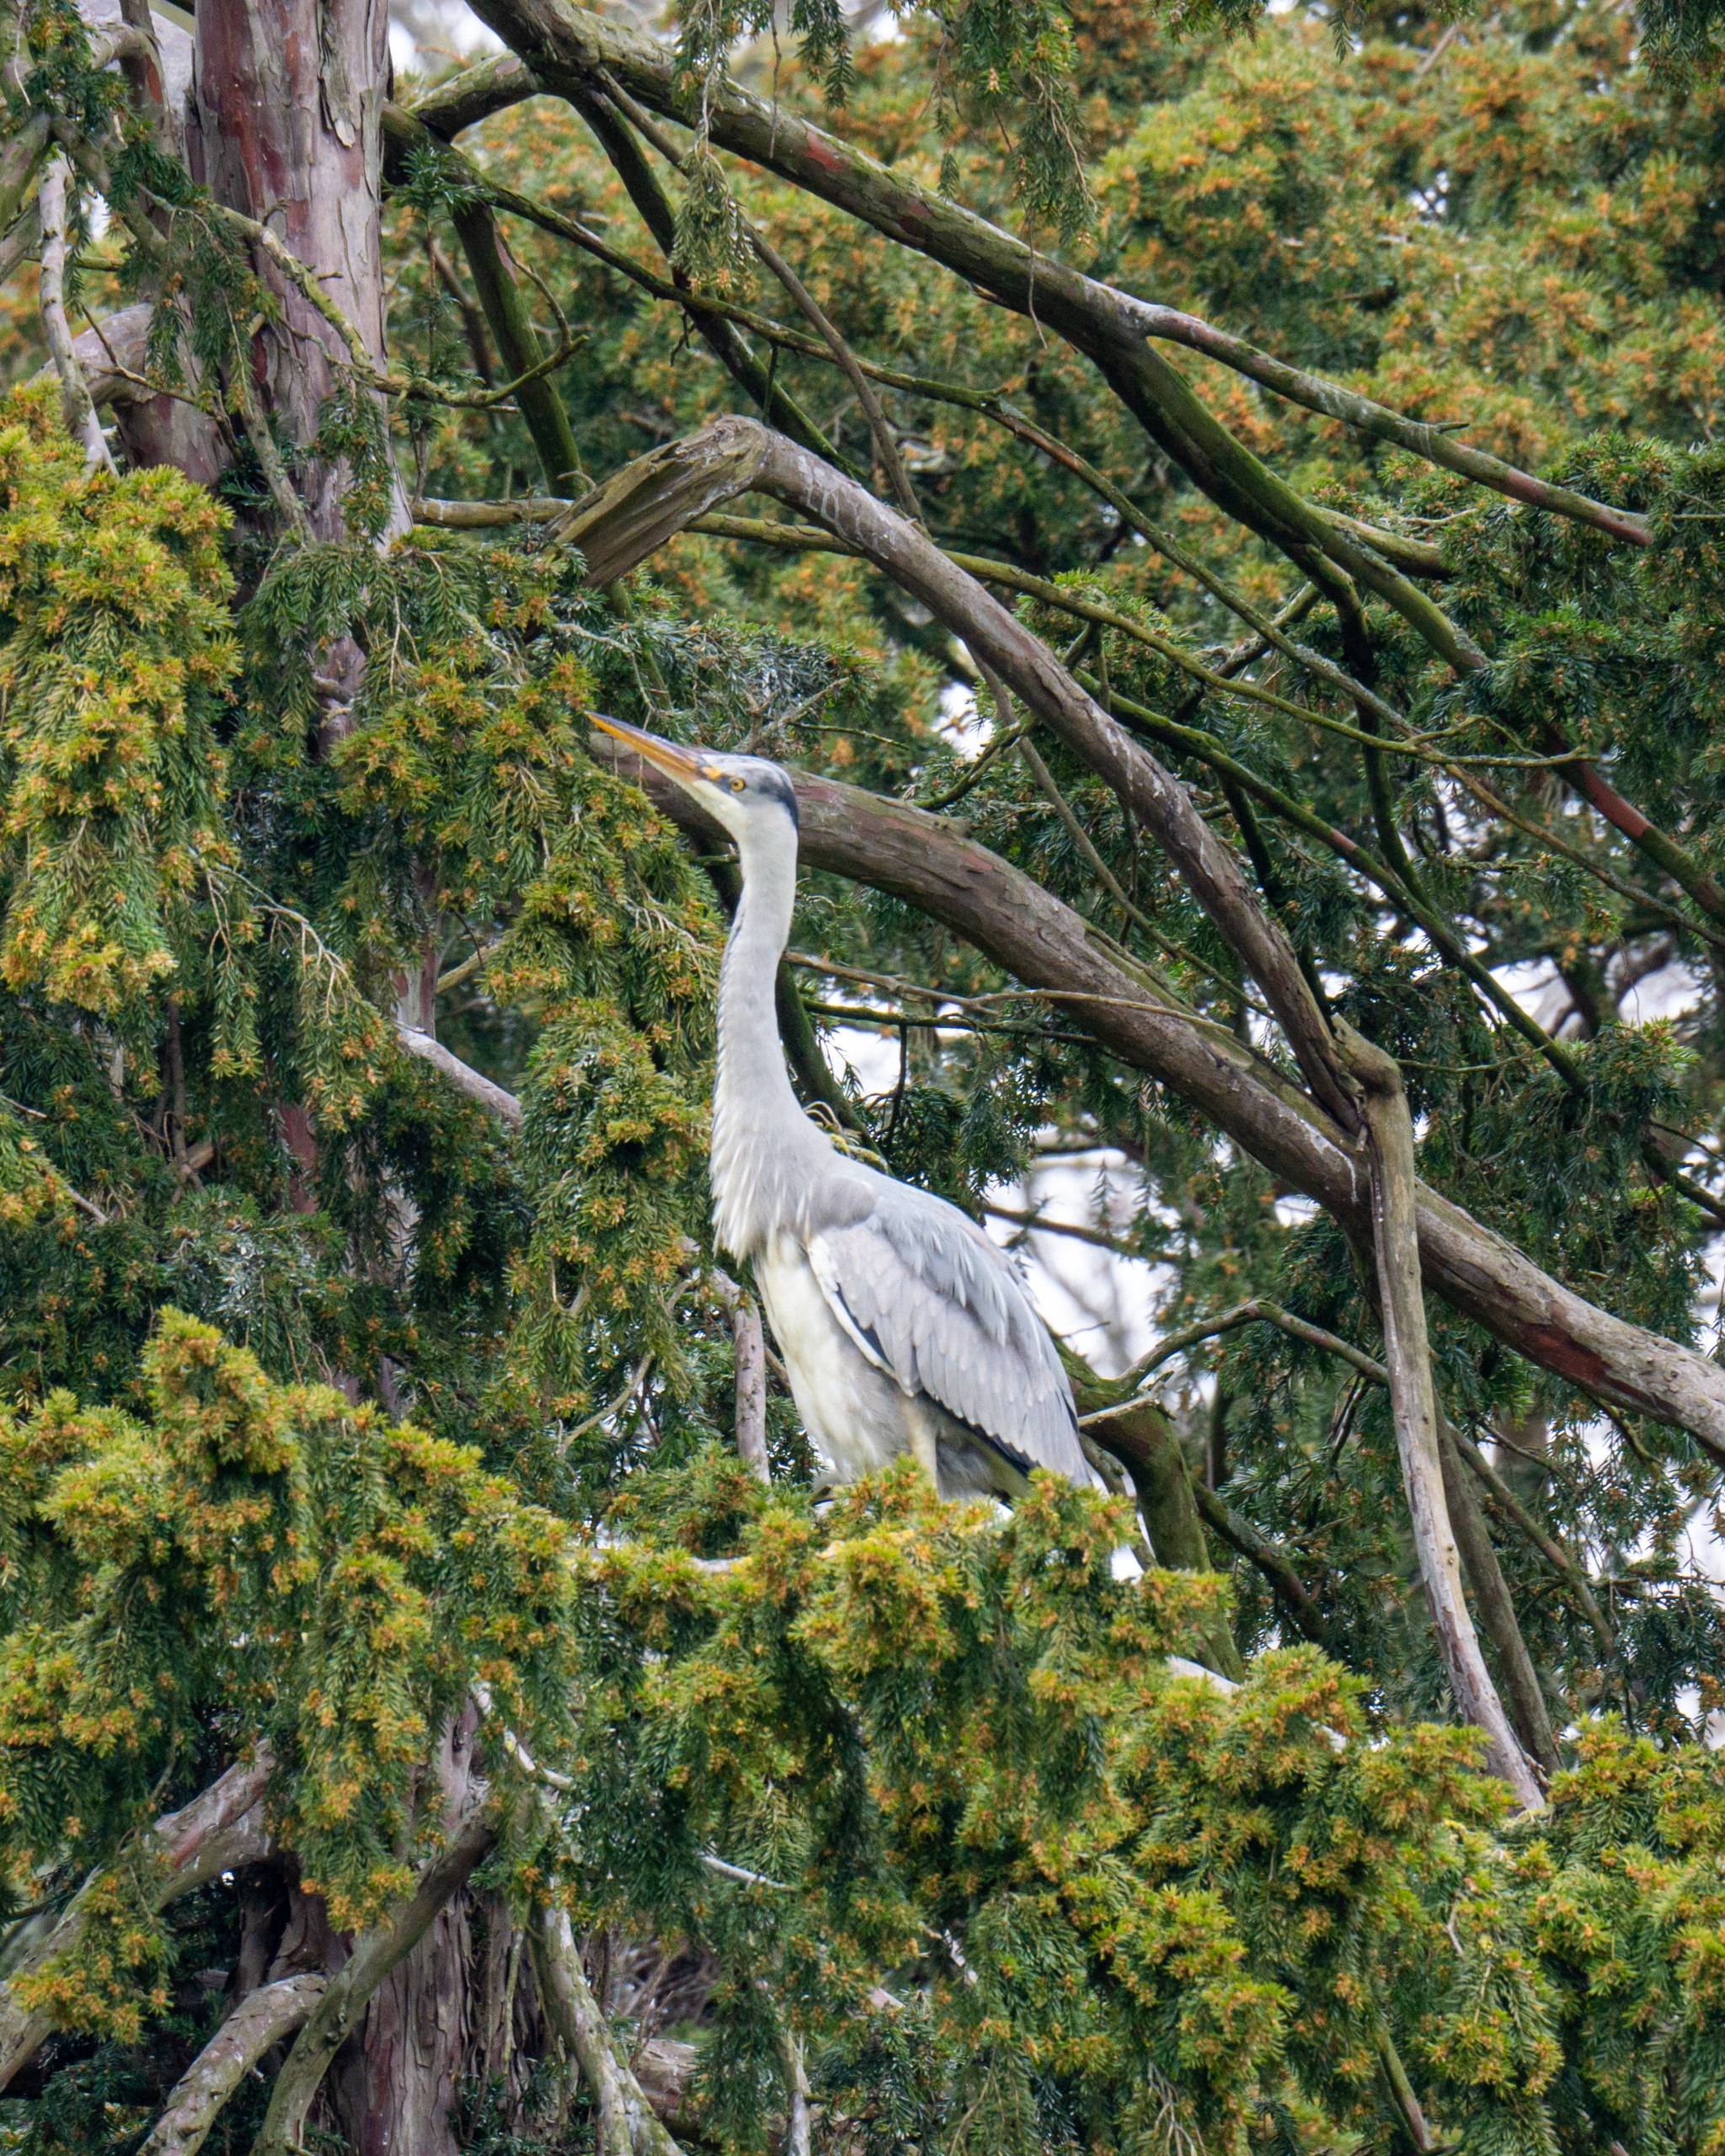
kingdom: Animalia
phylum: Chordata
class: Aves
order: Pelecaniformes
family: Ardeidae
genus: Ardea
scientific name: Ardea cinerea
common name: Fiskehejre
